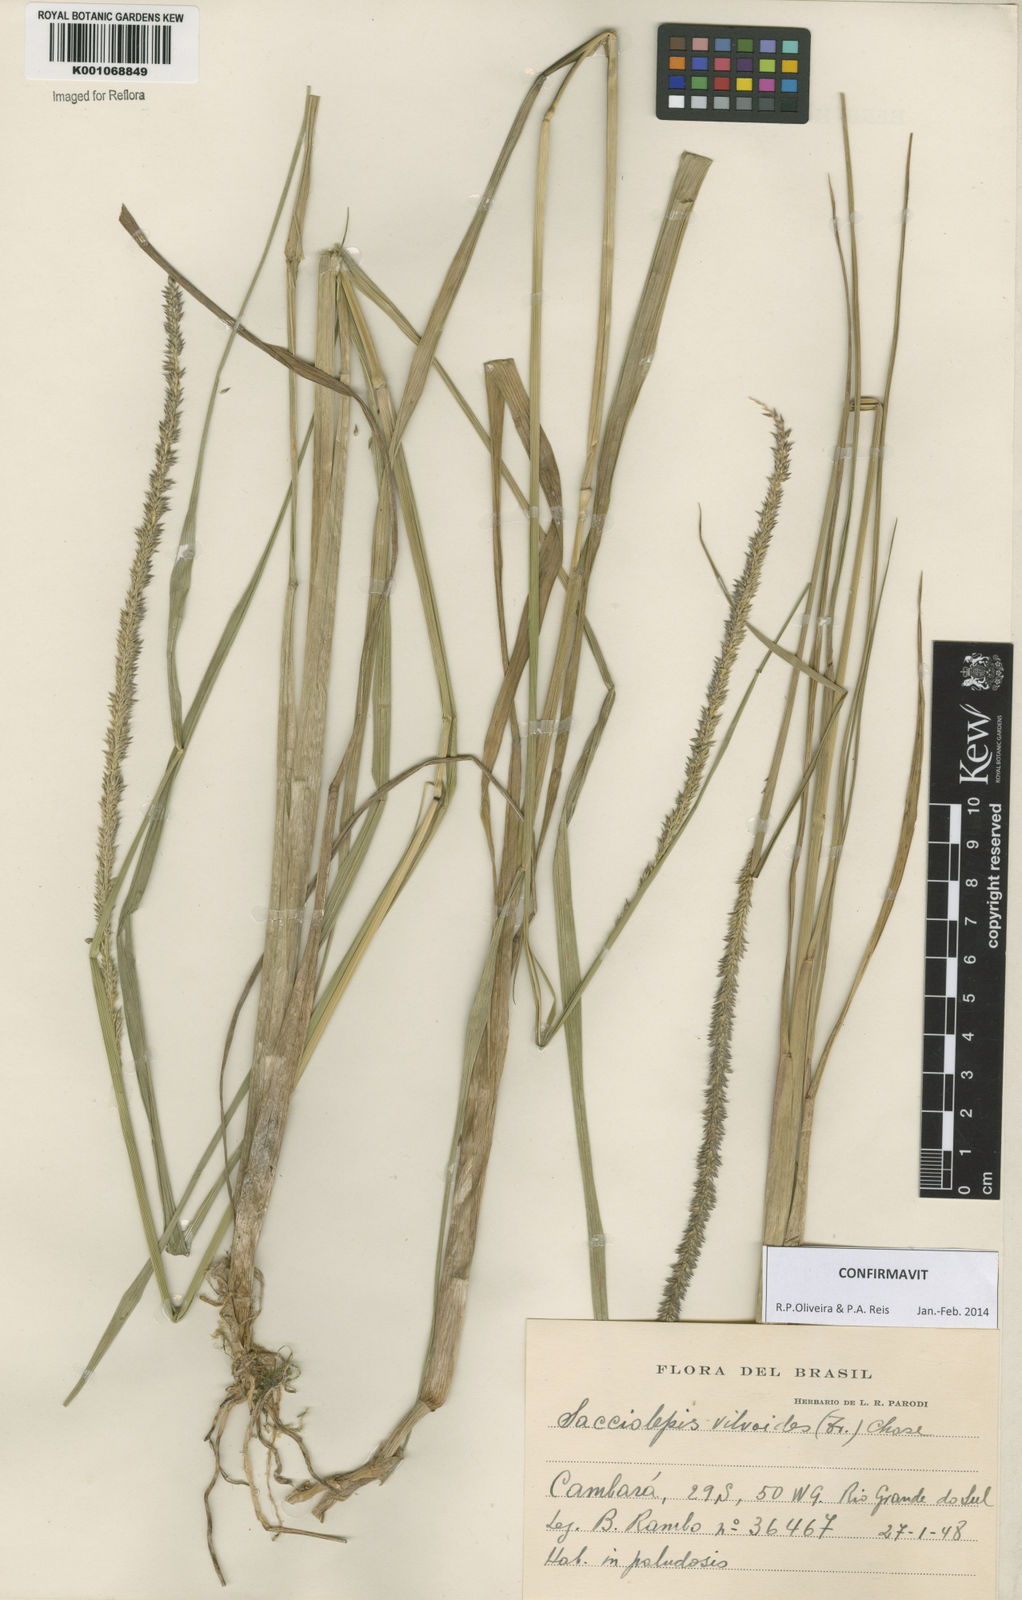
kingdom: Plantae
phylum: Tracheophyta
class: Liliopsida
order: Poales
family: Poaceae
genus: Sacciolepis
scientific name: Sacciolepis vilvoides
